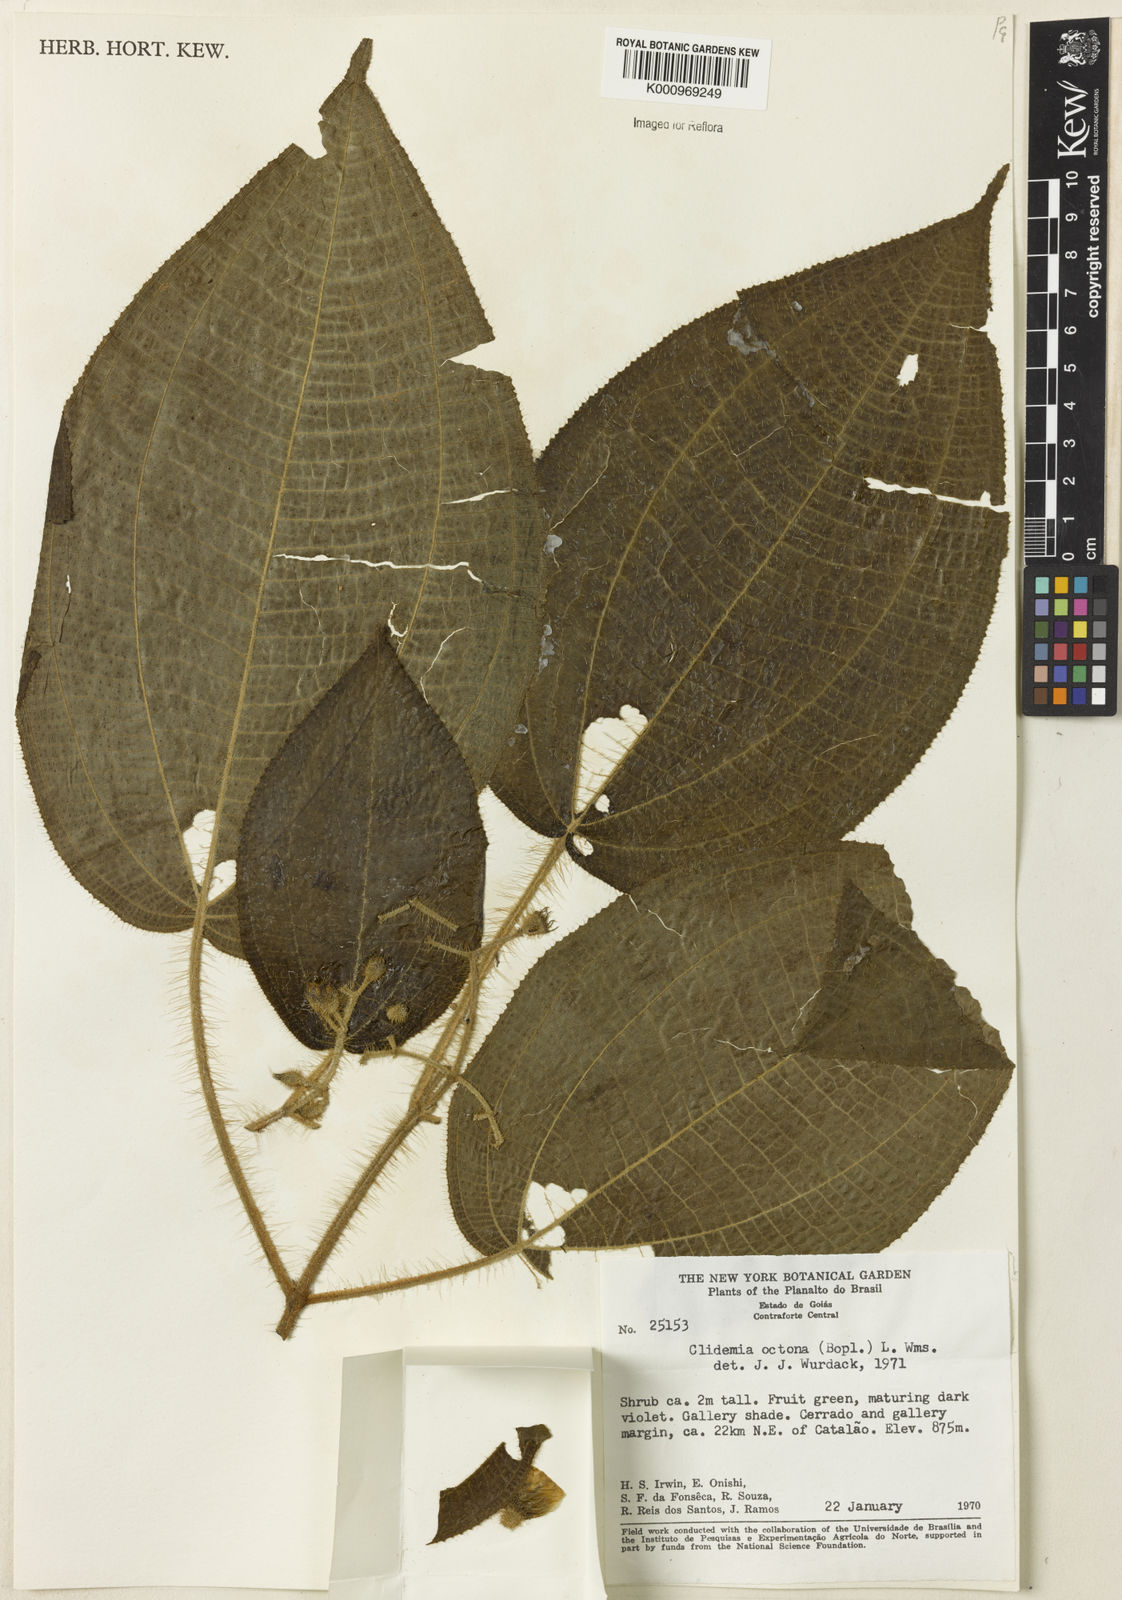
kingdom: Plantae
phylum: Tracheophyta
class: Magnoliopsida
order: Myrtales
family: Melastomataceae
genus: Miconia
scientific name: Miconia octona
